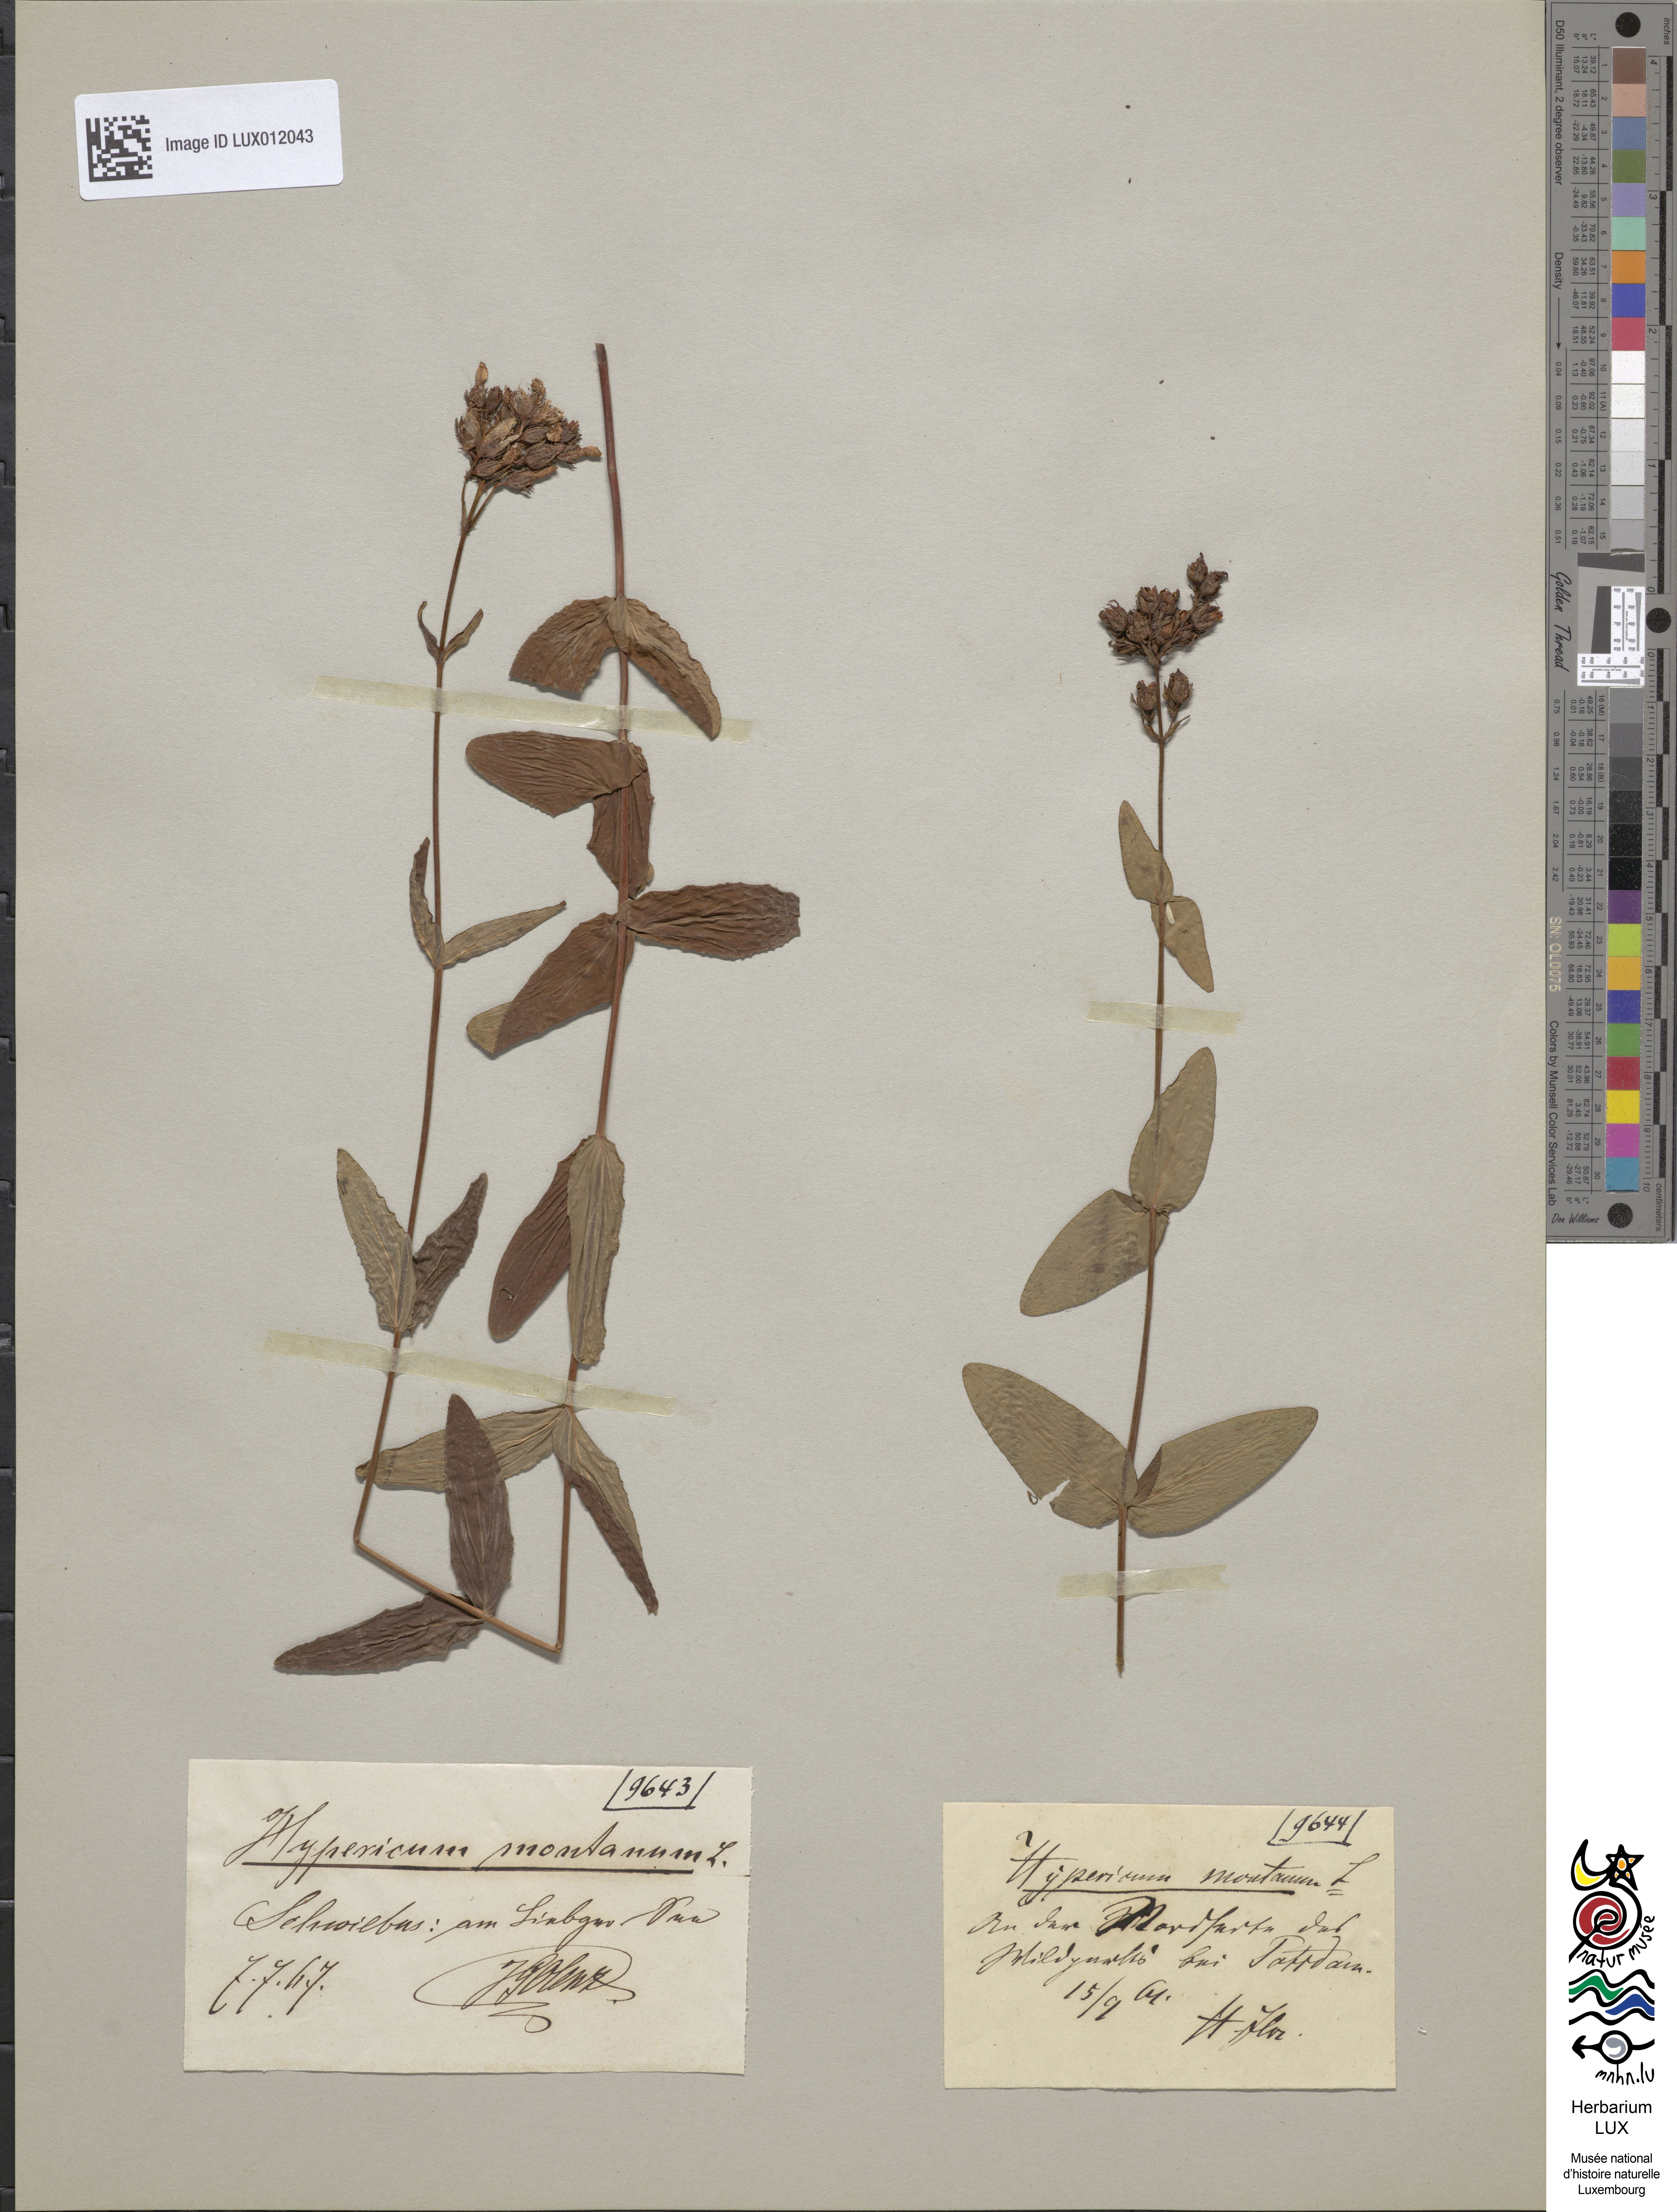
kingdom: Plantae
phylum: Tracheophyta
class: Magnoliopsida
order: Malpighiales
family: Hypericaceae
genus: Hypericum
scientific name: Hypericum montanum
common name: Pale st. john's-wort
